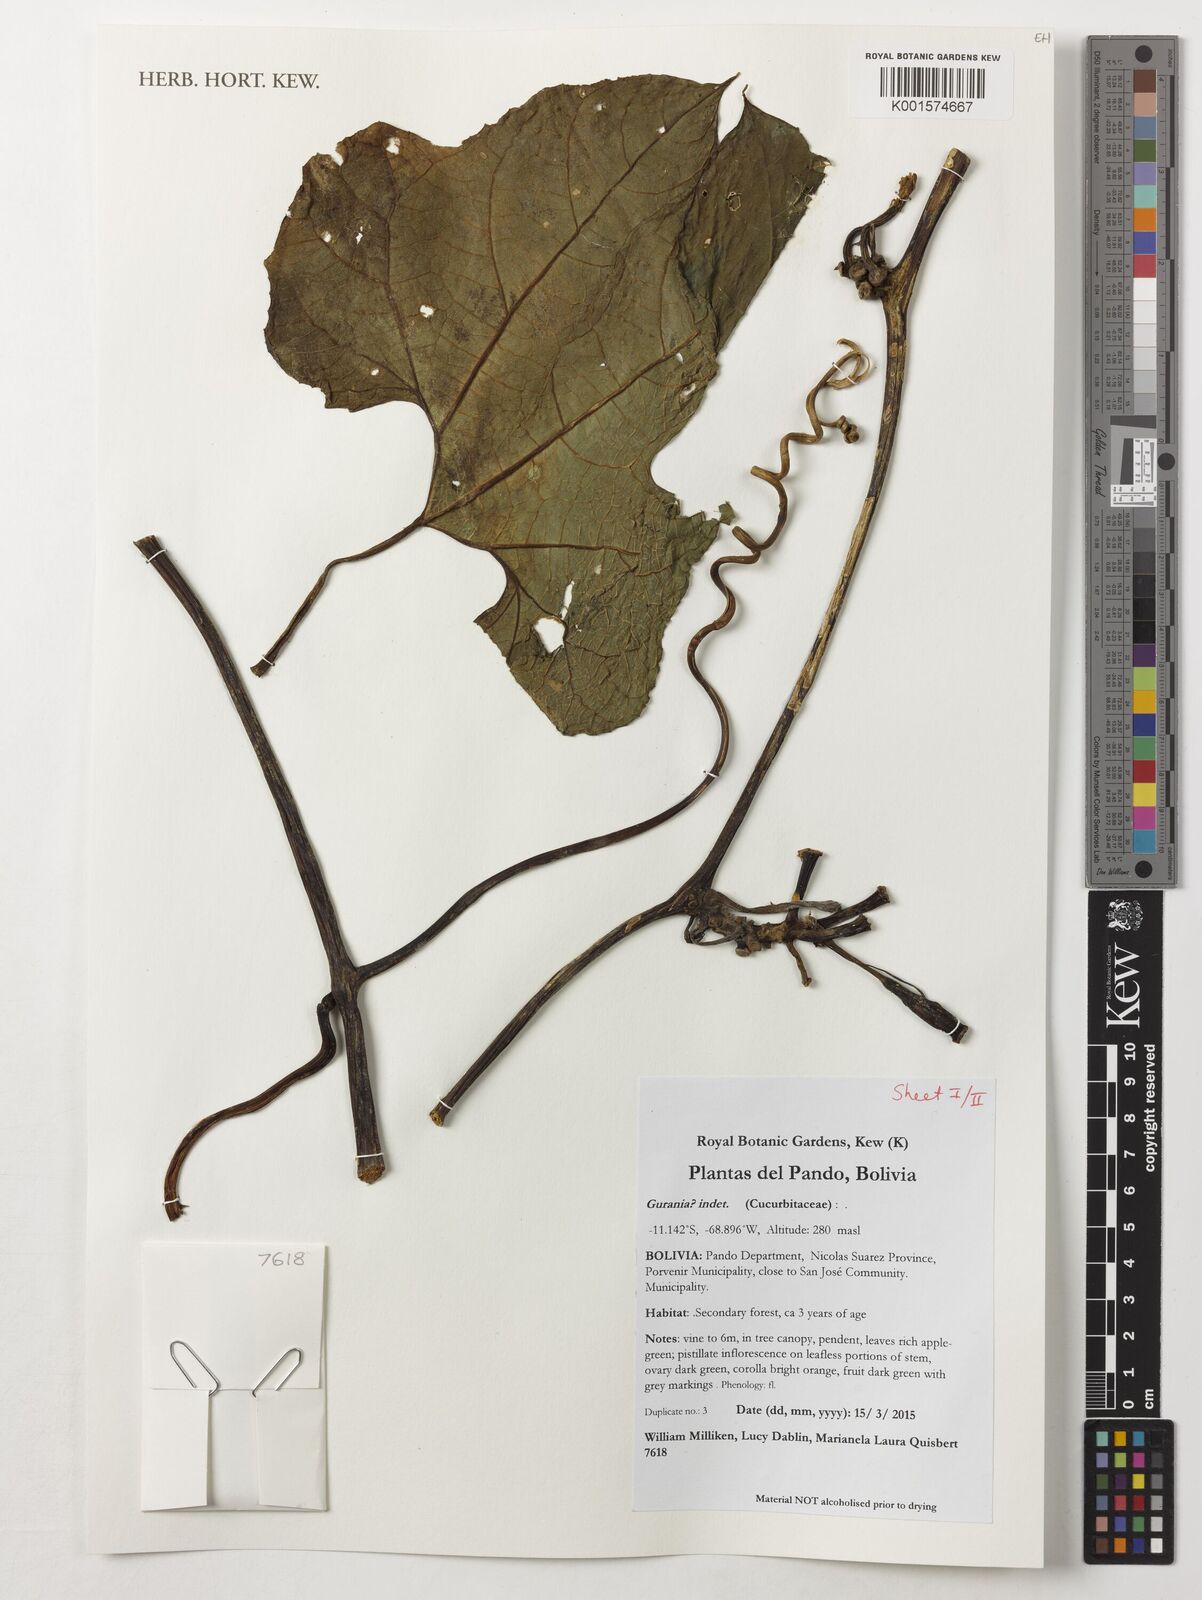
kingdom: Plantae
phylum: Tracheophyta
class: Magnoliopsida
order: Cucurbitales
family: Cucurbitaceae
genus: Gurania
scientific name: Gurania
